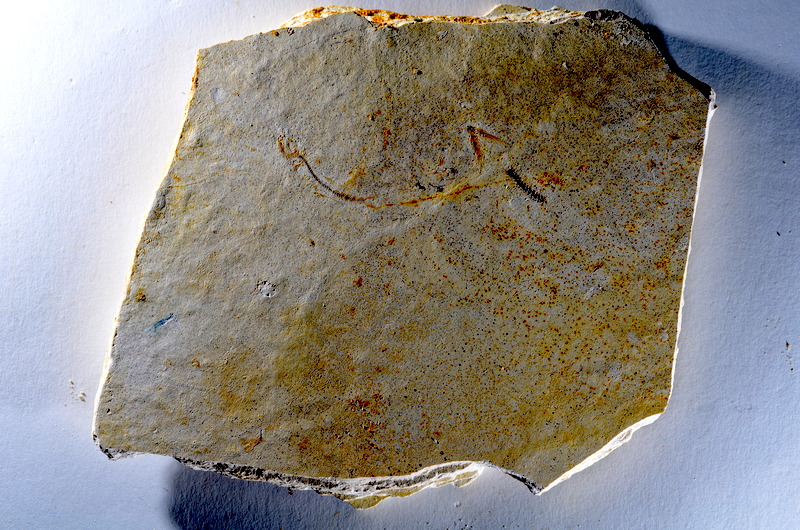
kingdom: Animalia
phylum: Chordata
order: Salmoniformes
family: Orthogonikleithridae
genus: Orthogonikleithrus
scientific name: Orthogonikleithrus hoelli
